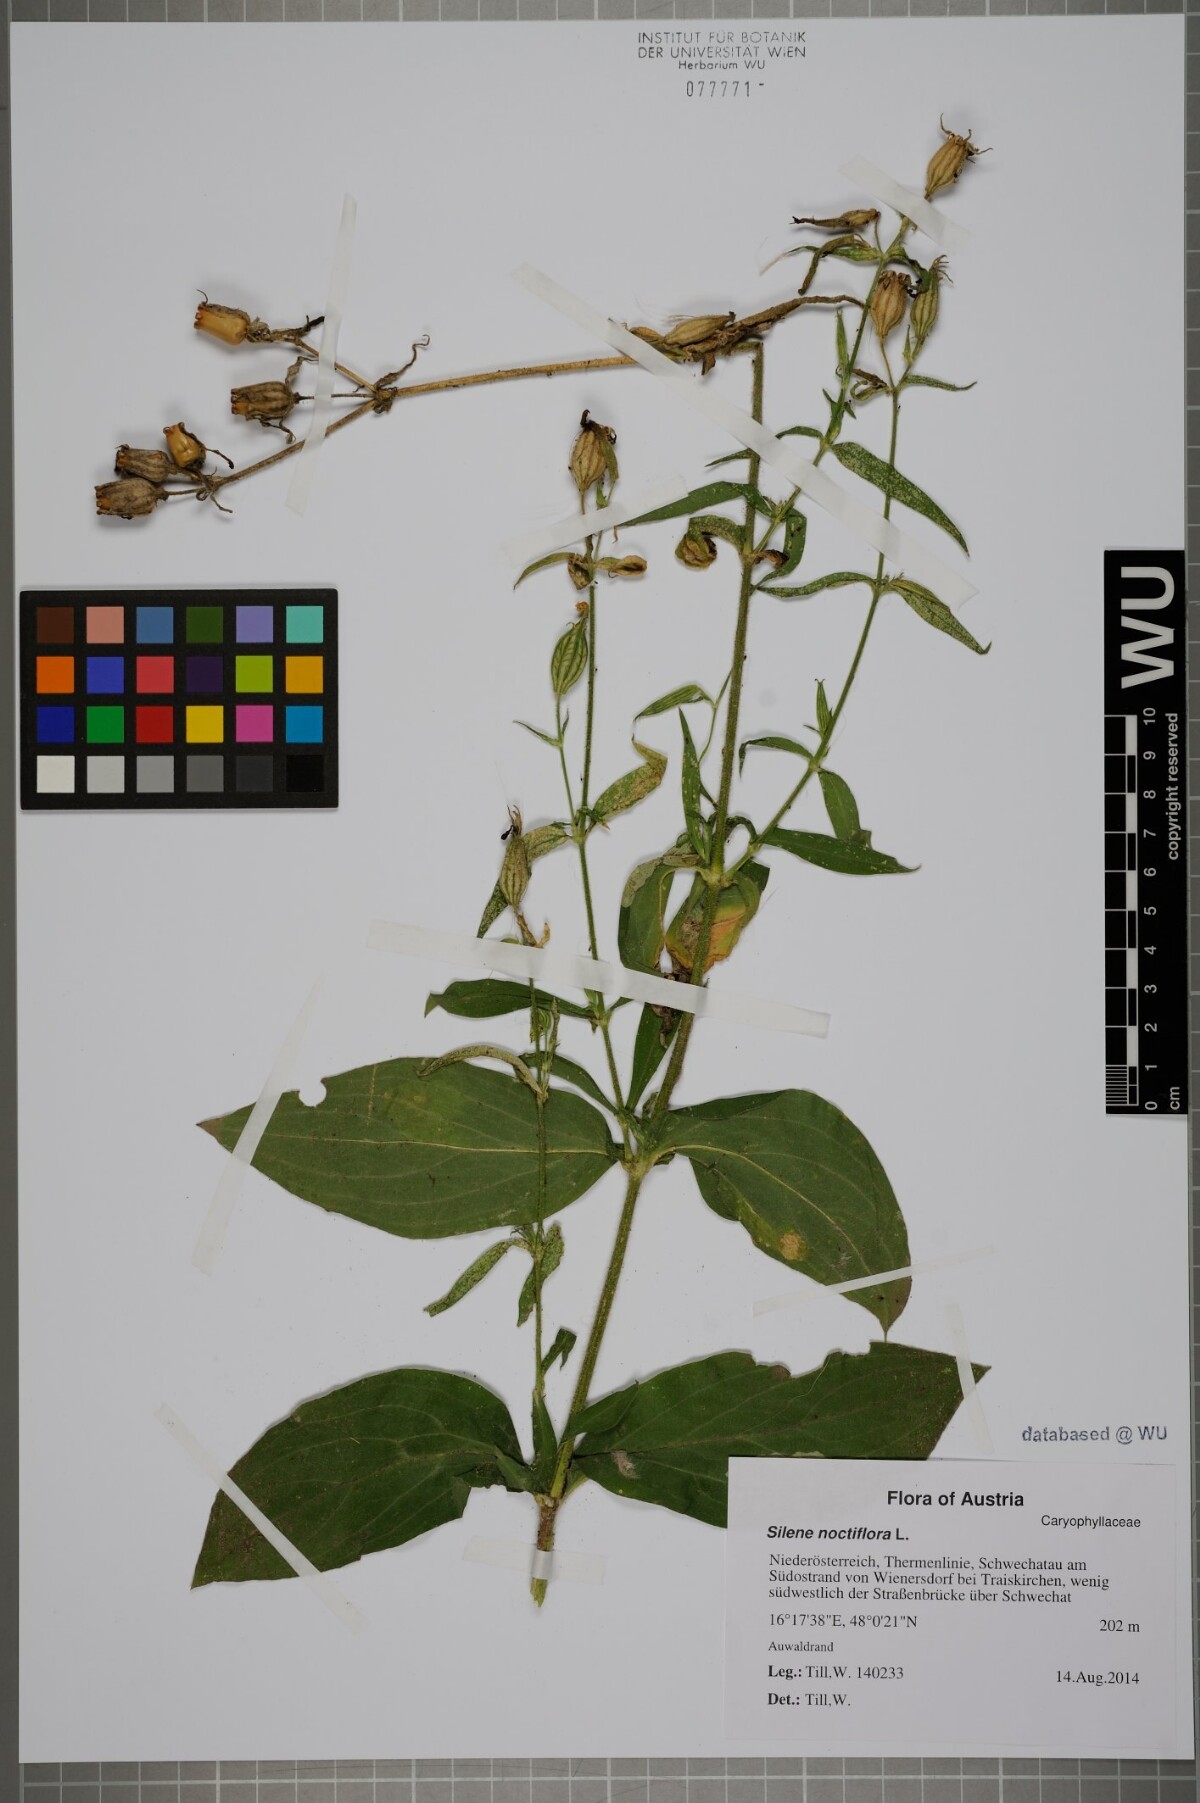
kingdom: Plantae
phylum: Tracheophyta
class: Magnoliopsida
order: Caryophyllales
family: Caryophyllaceae
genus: Silene
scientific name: Silene noctiflora
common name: Night-flowering catchfly
